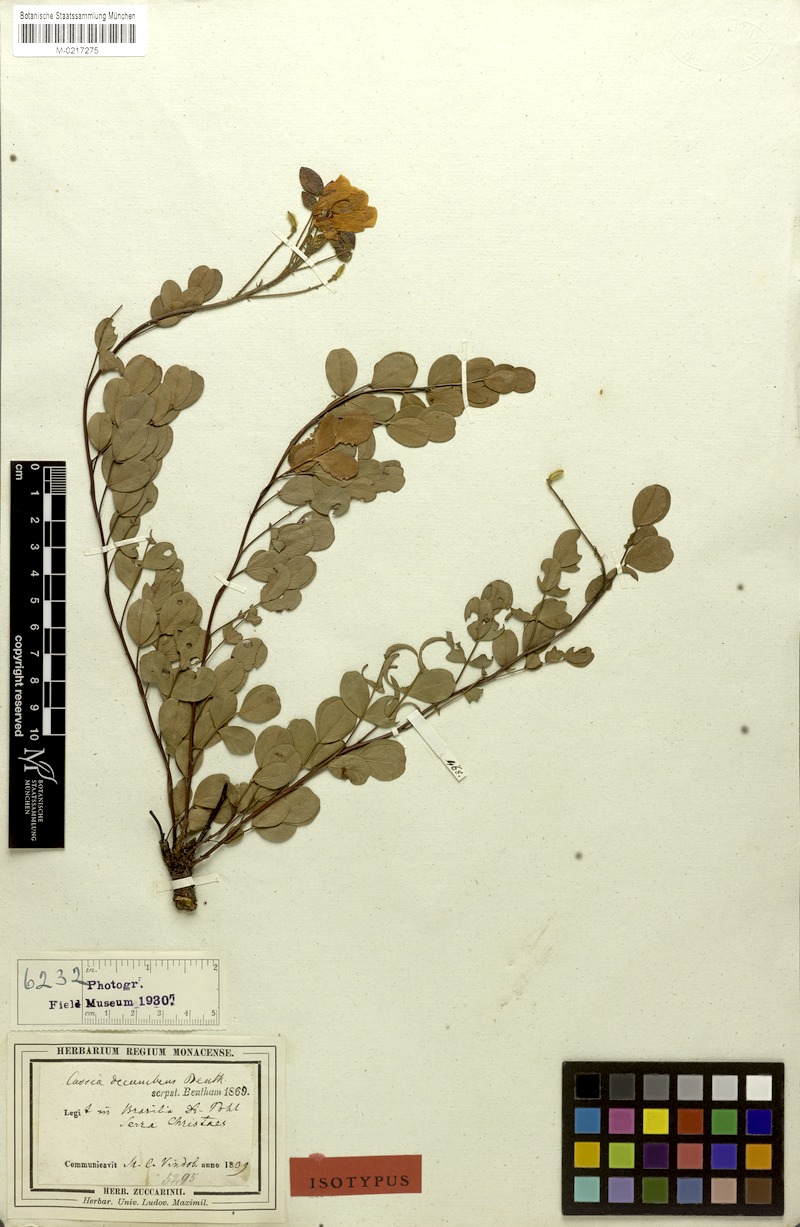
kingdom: Plantae
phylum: Tracheophyta
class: Magnoliopsida
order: Fabales
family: Fabaceae
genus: Chamaecrista
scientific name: Chamaecrista decumbens
